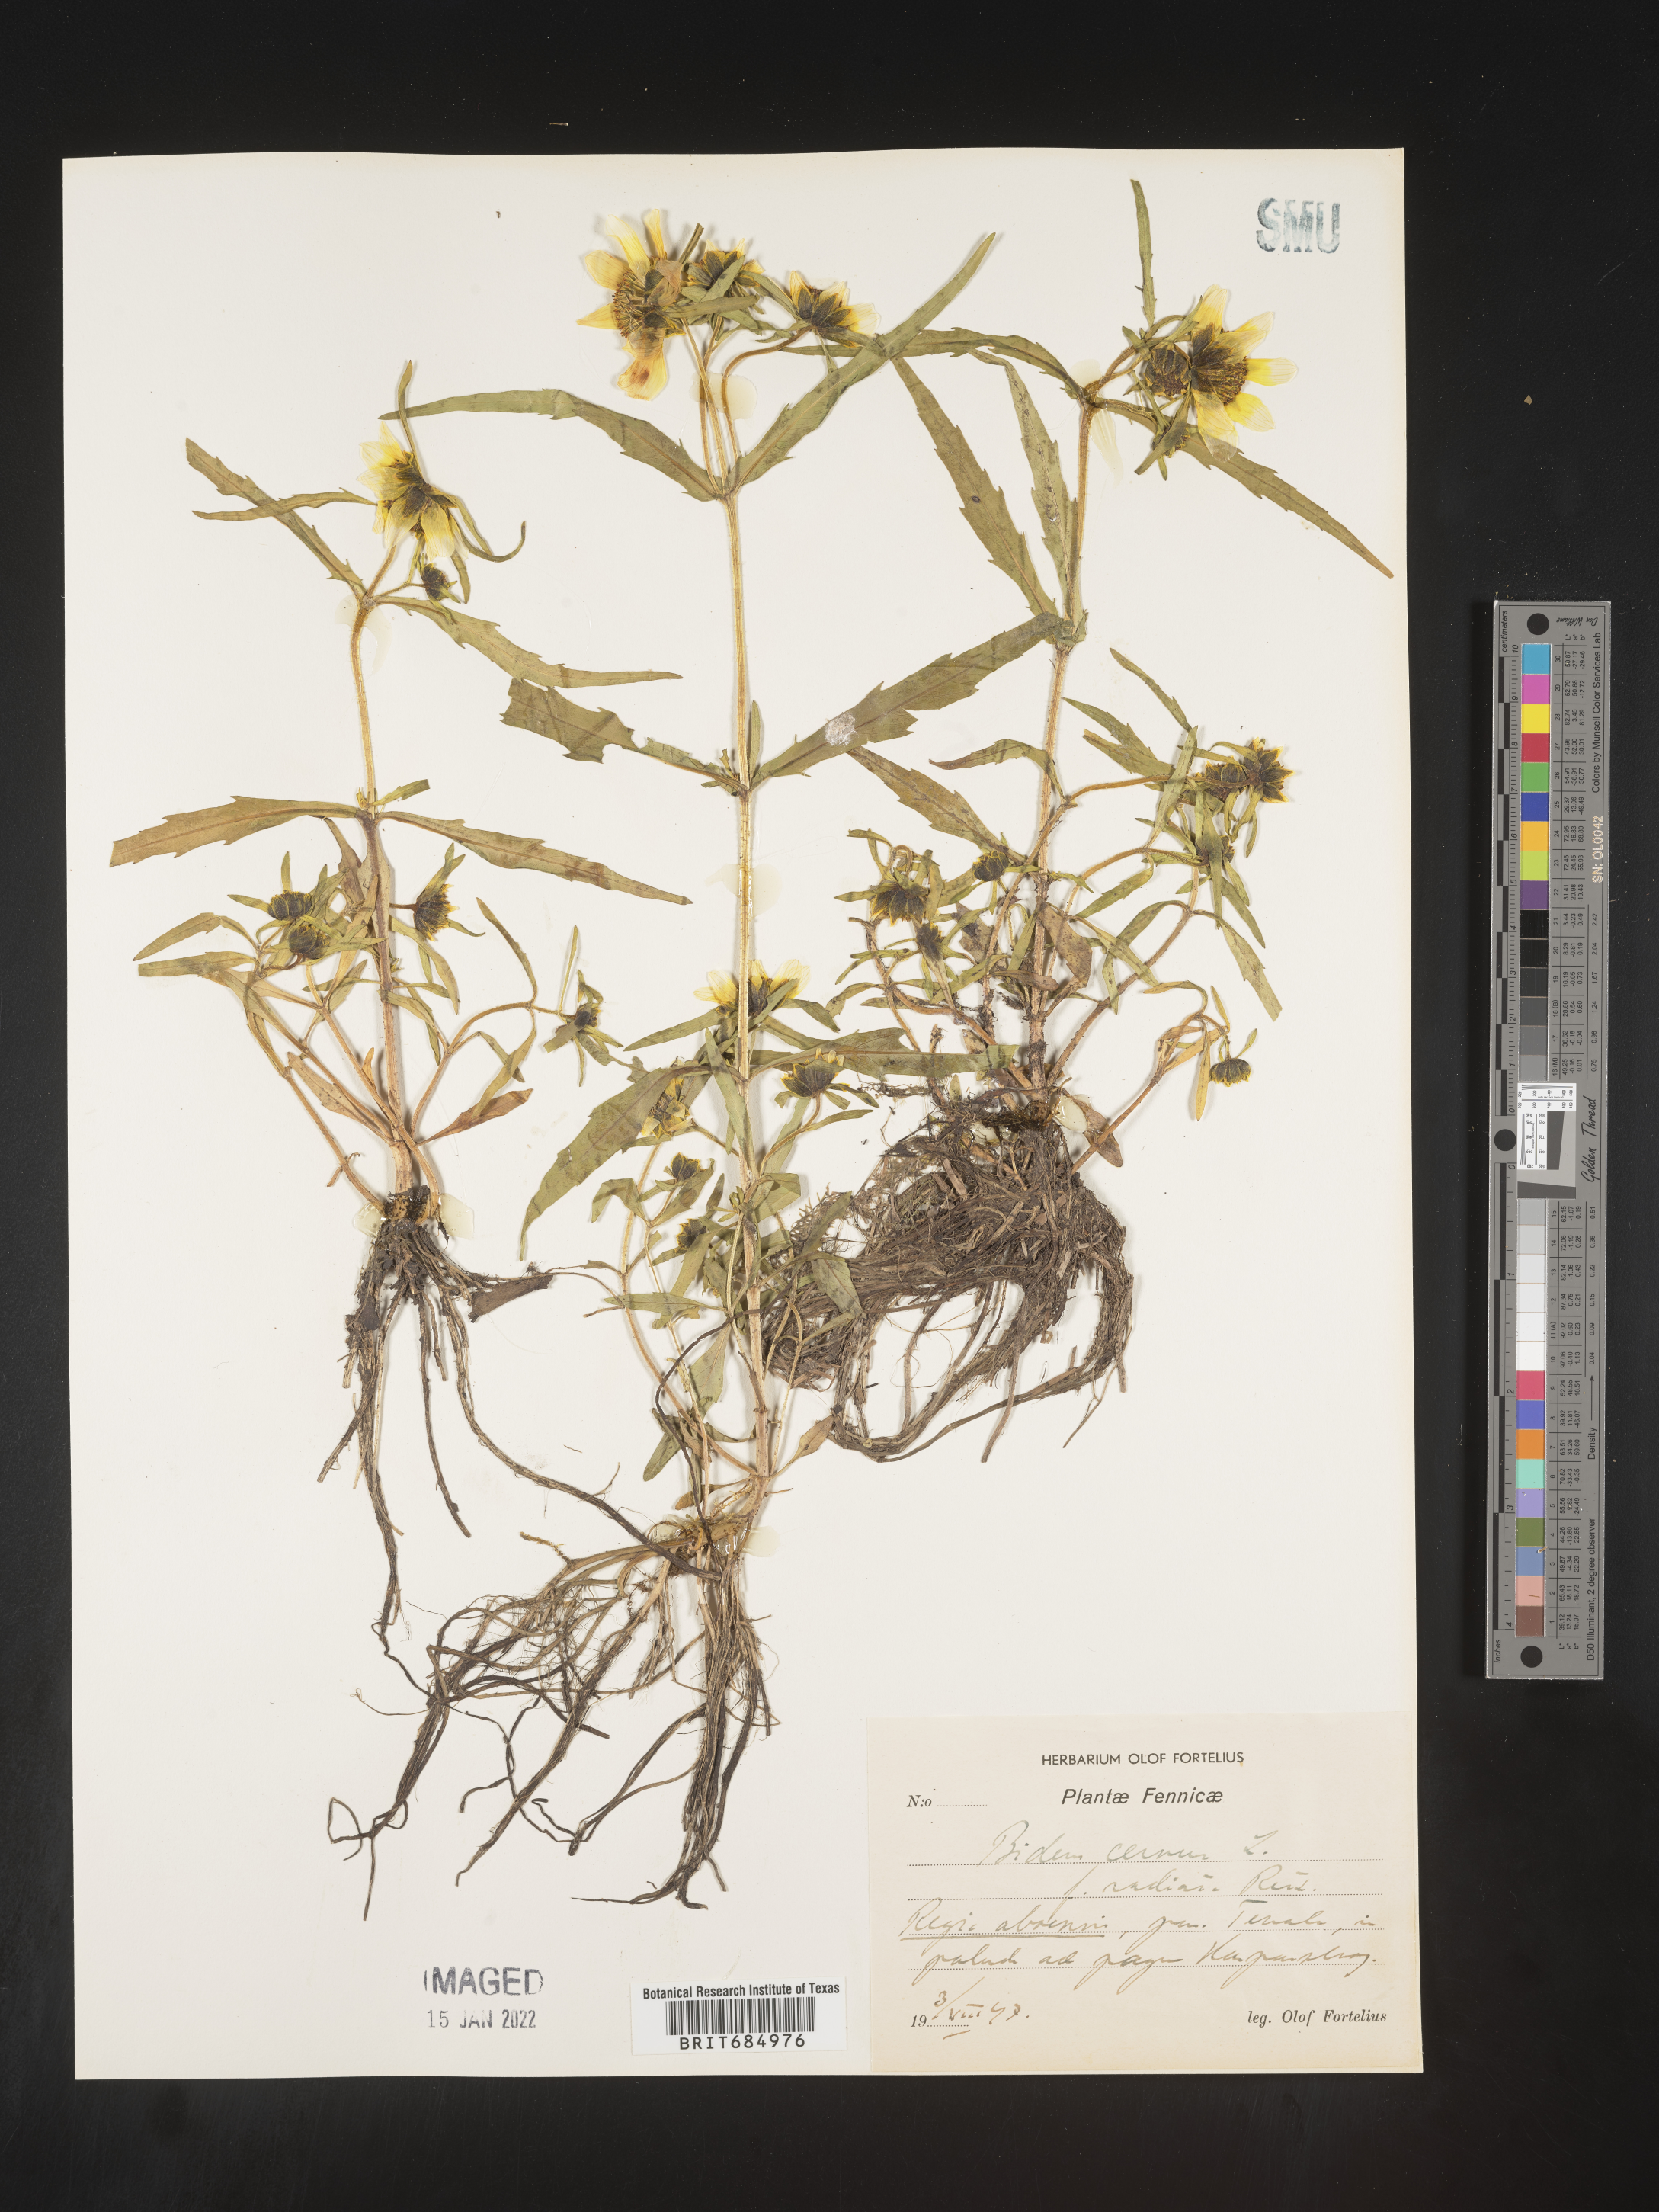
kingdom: Plantae
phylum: Tracheophyta
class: Magnoliopsida
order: Asterales
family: Asteraceae
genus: Bidens
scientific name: Bidens
